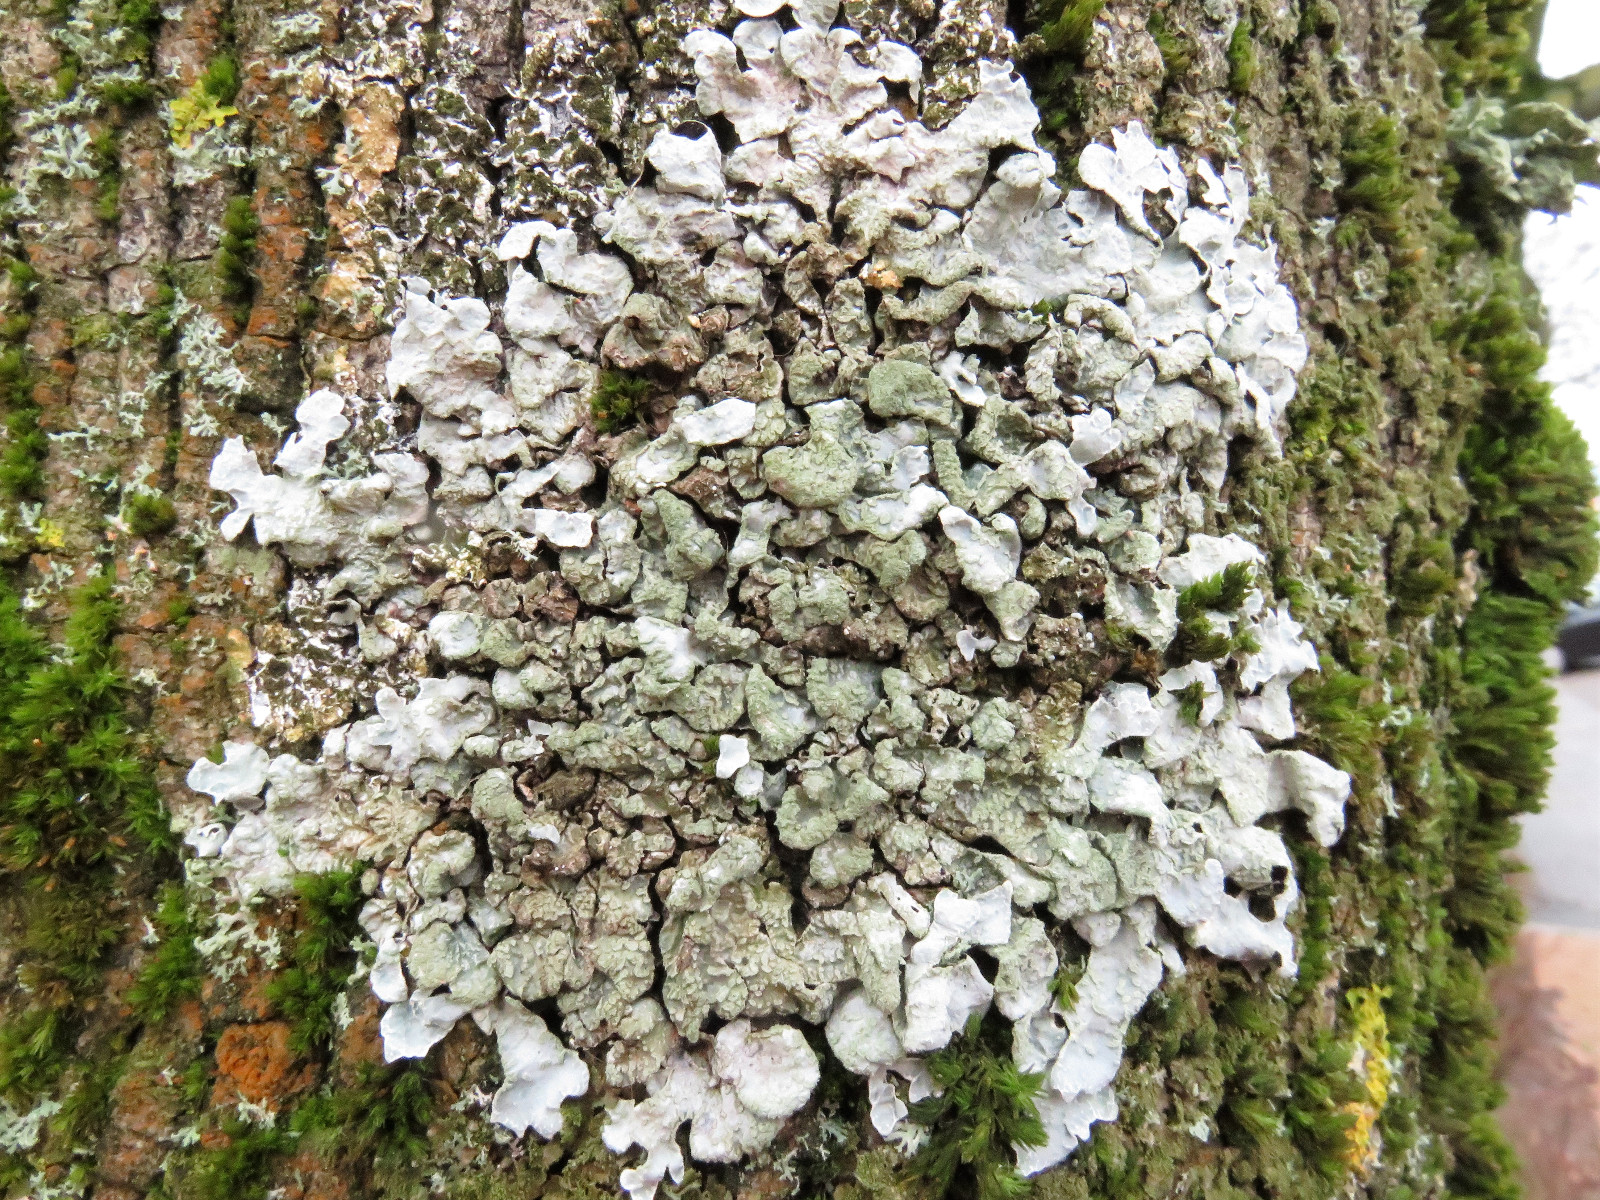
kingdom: Fungi
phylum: Ascomycota
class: Lecanoromycetes
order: Lecanorales
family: Parmeliaceae
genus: Parmelia
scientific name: Parmelia sulcata
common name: rynket skållav
